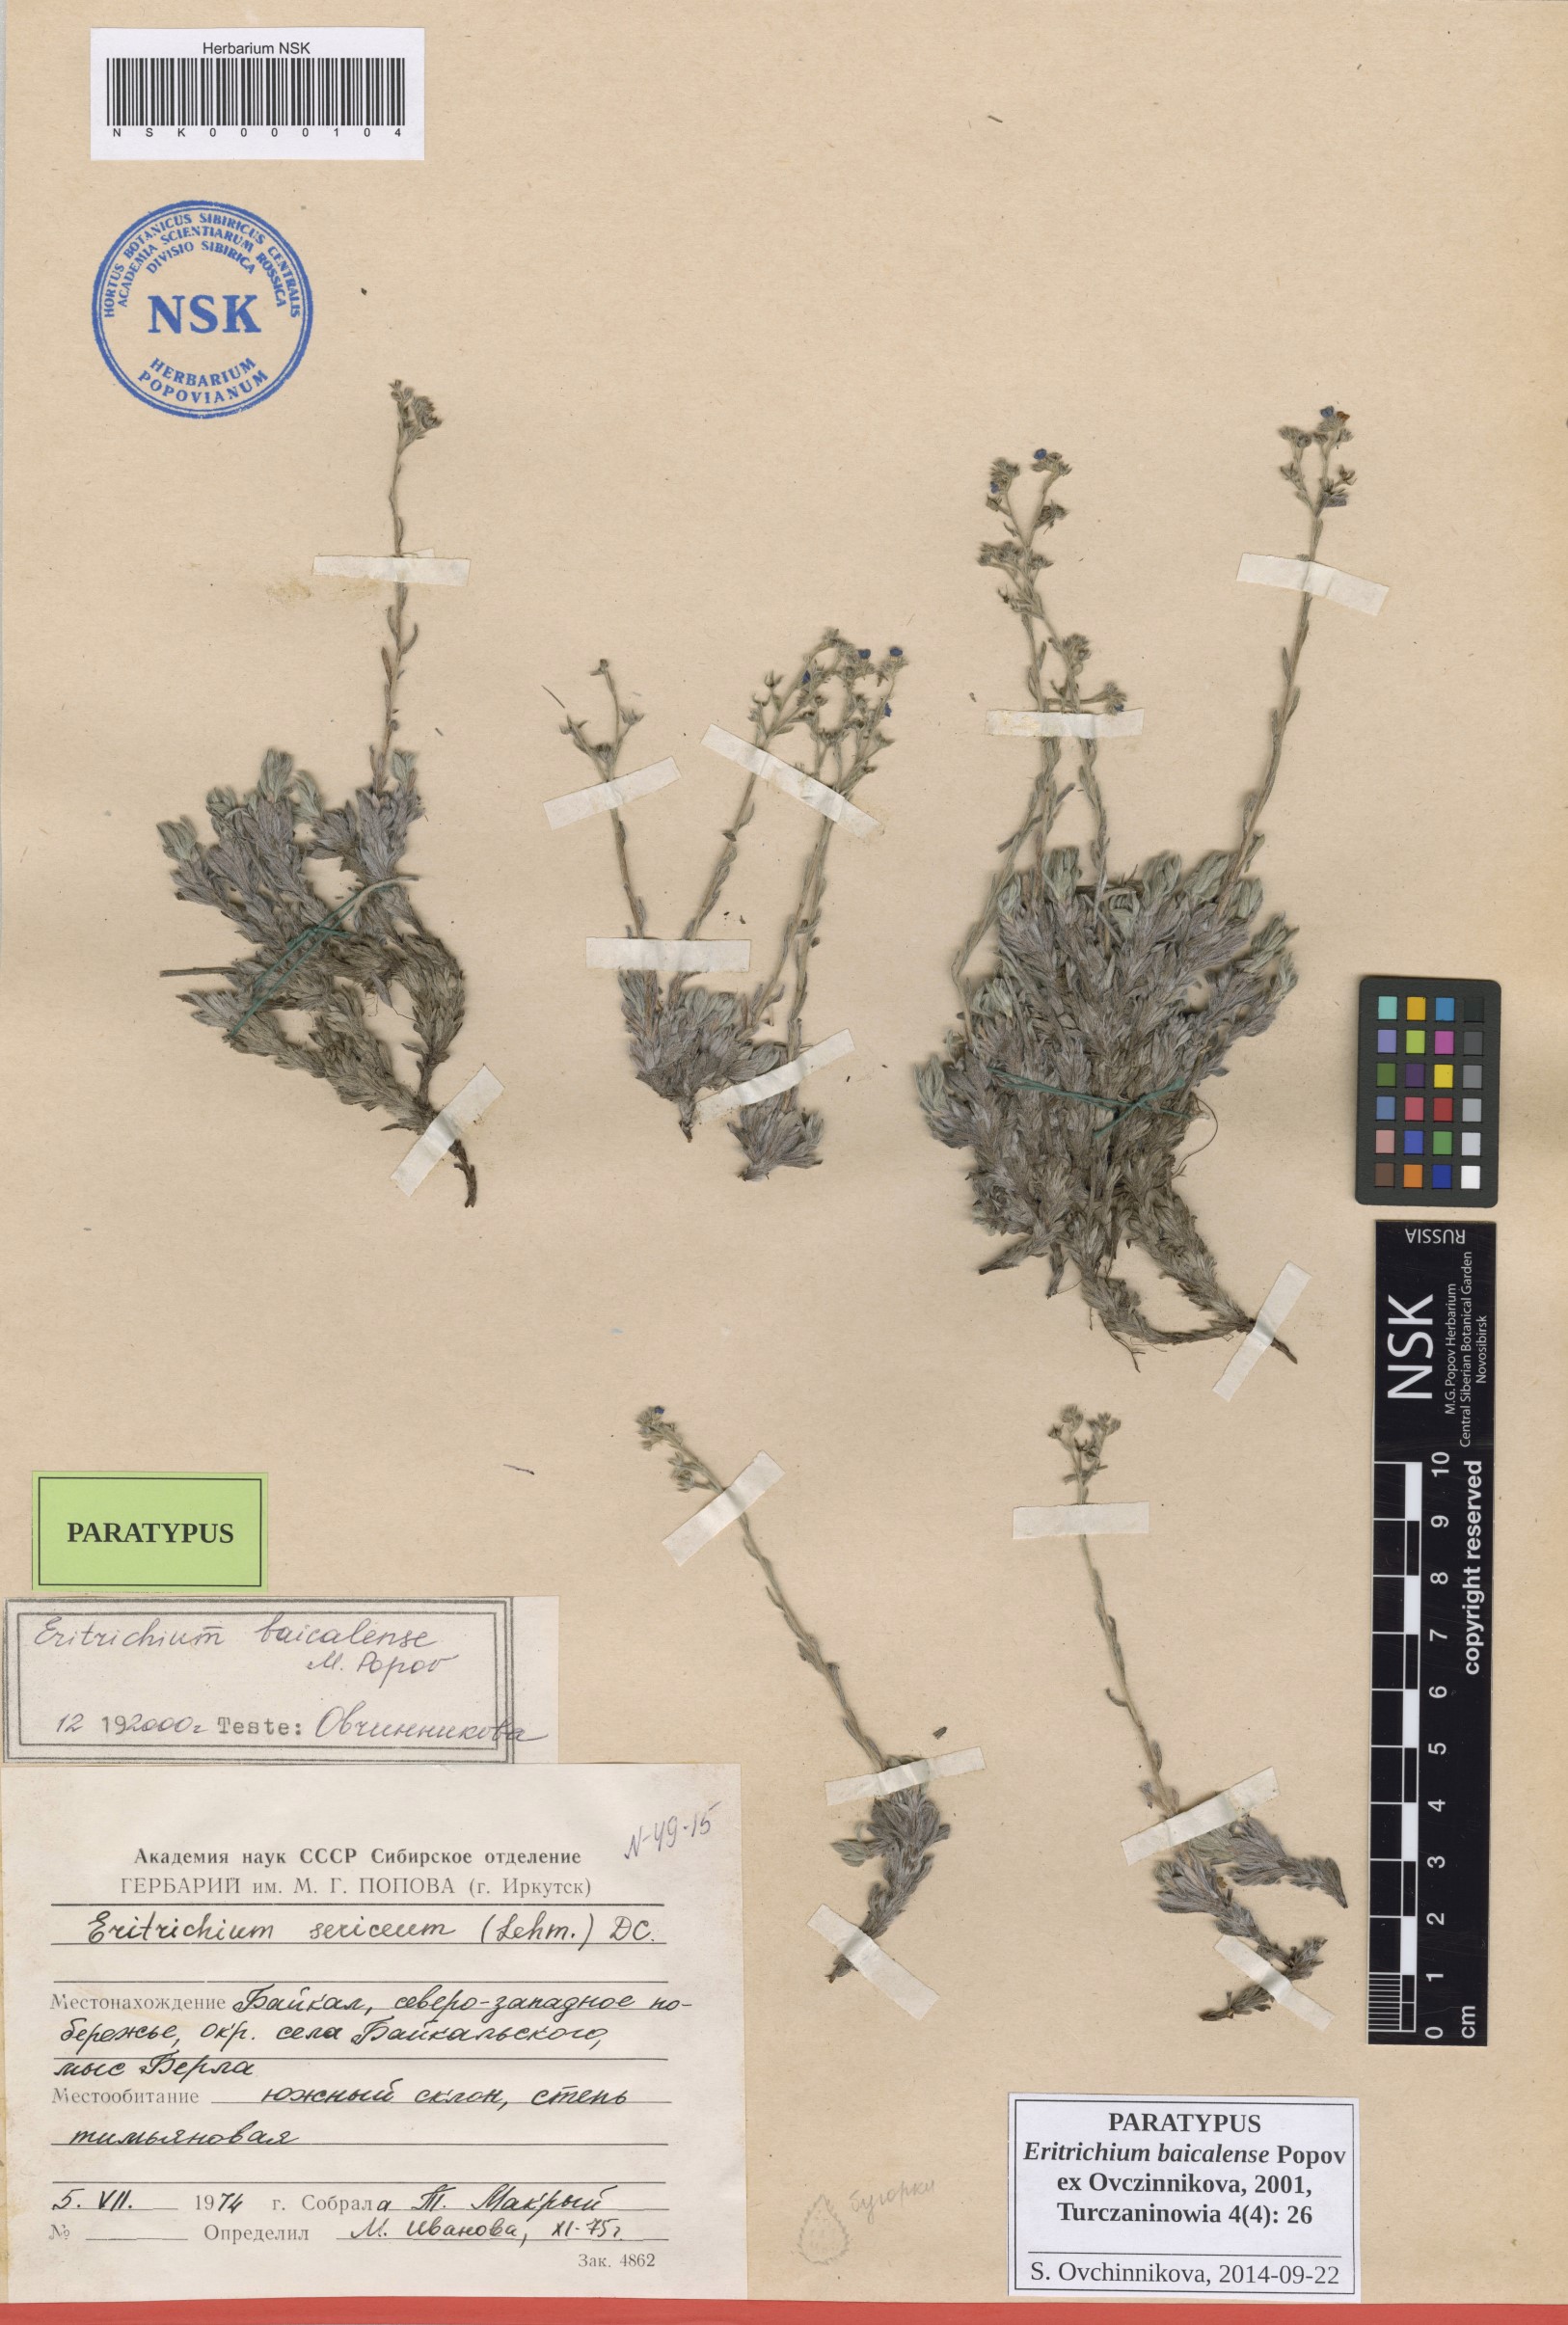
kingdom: Plantae
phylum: Tracheophyta
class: Magnoliopsida
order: Boraginales
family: Boraginaceae
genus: Eritrichium
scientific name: Eritrichium baicalense
